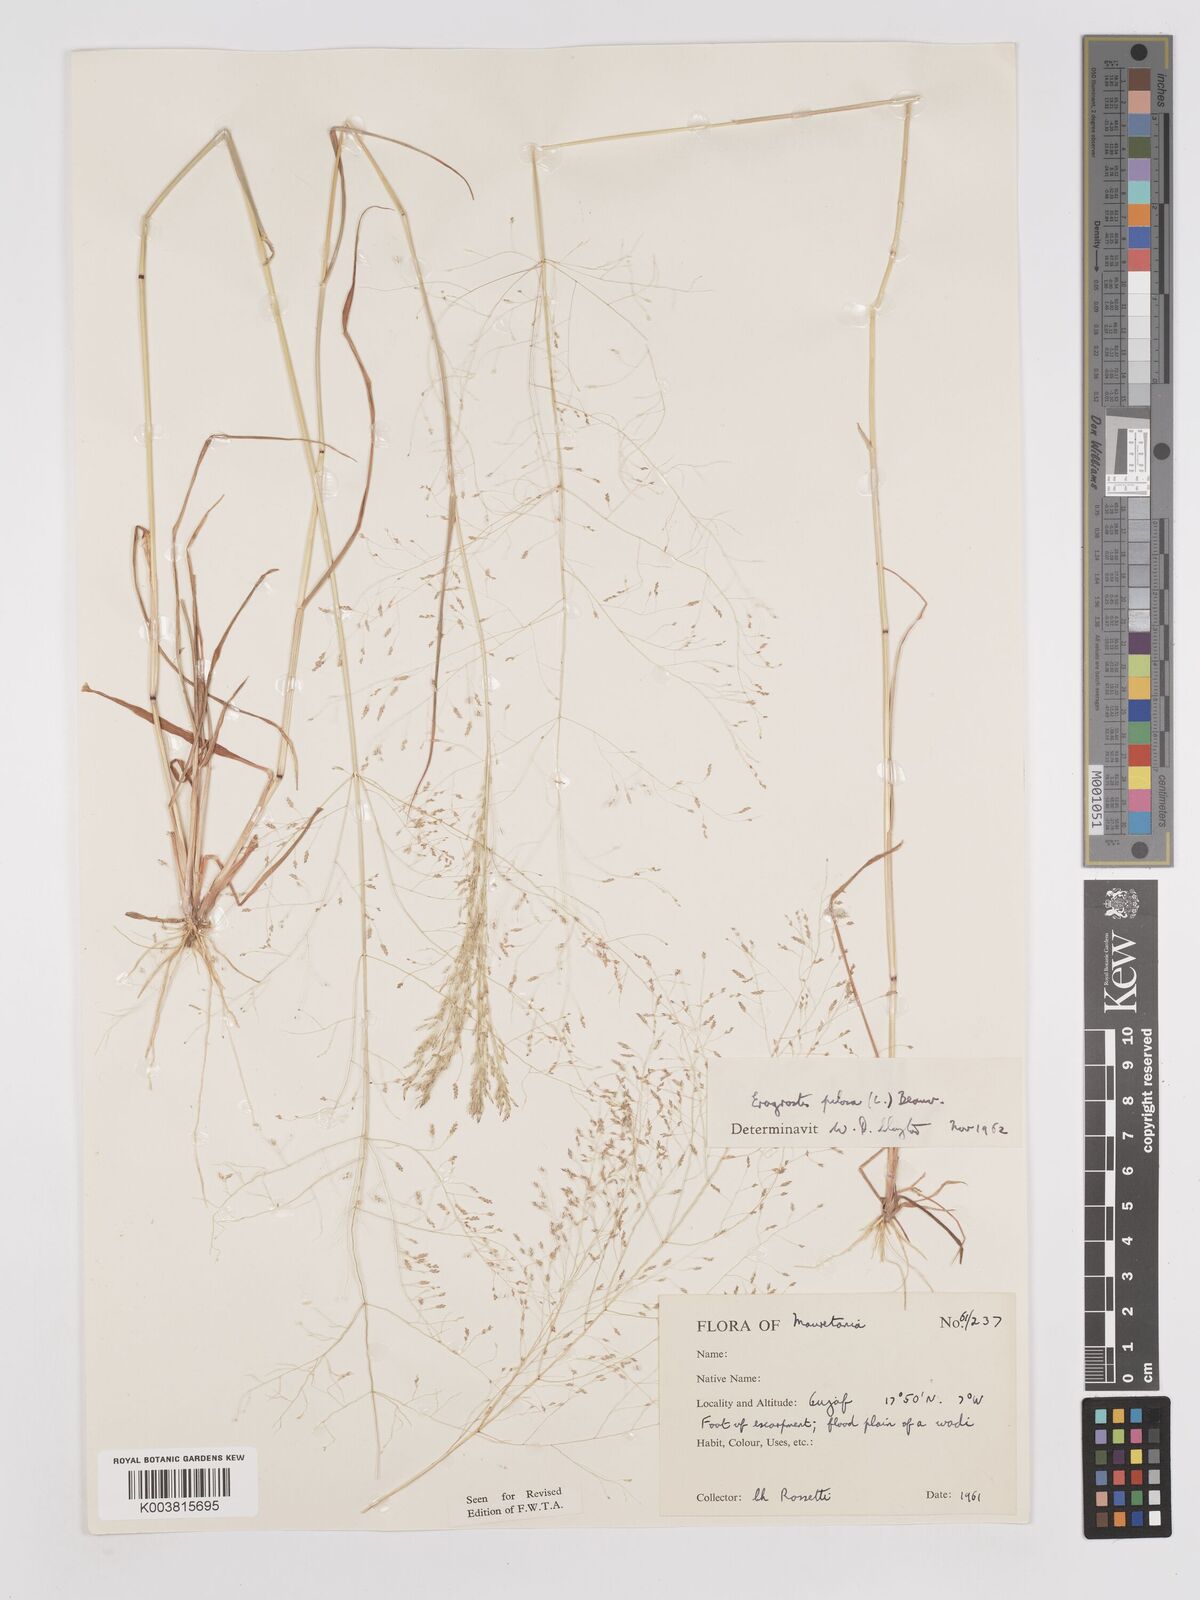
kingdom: Plantae
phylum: Tracheophyta
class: Liliopsida
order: Poales
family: Poaceae
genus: Eragrostis
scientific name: Eragrostis pilosa
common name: Indian lovegrass
